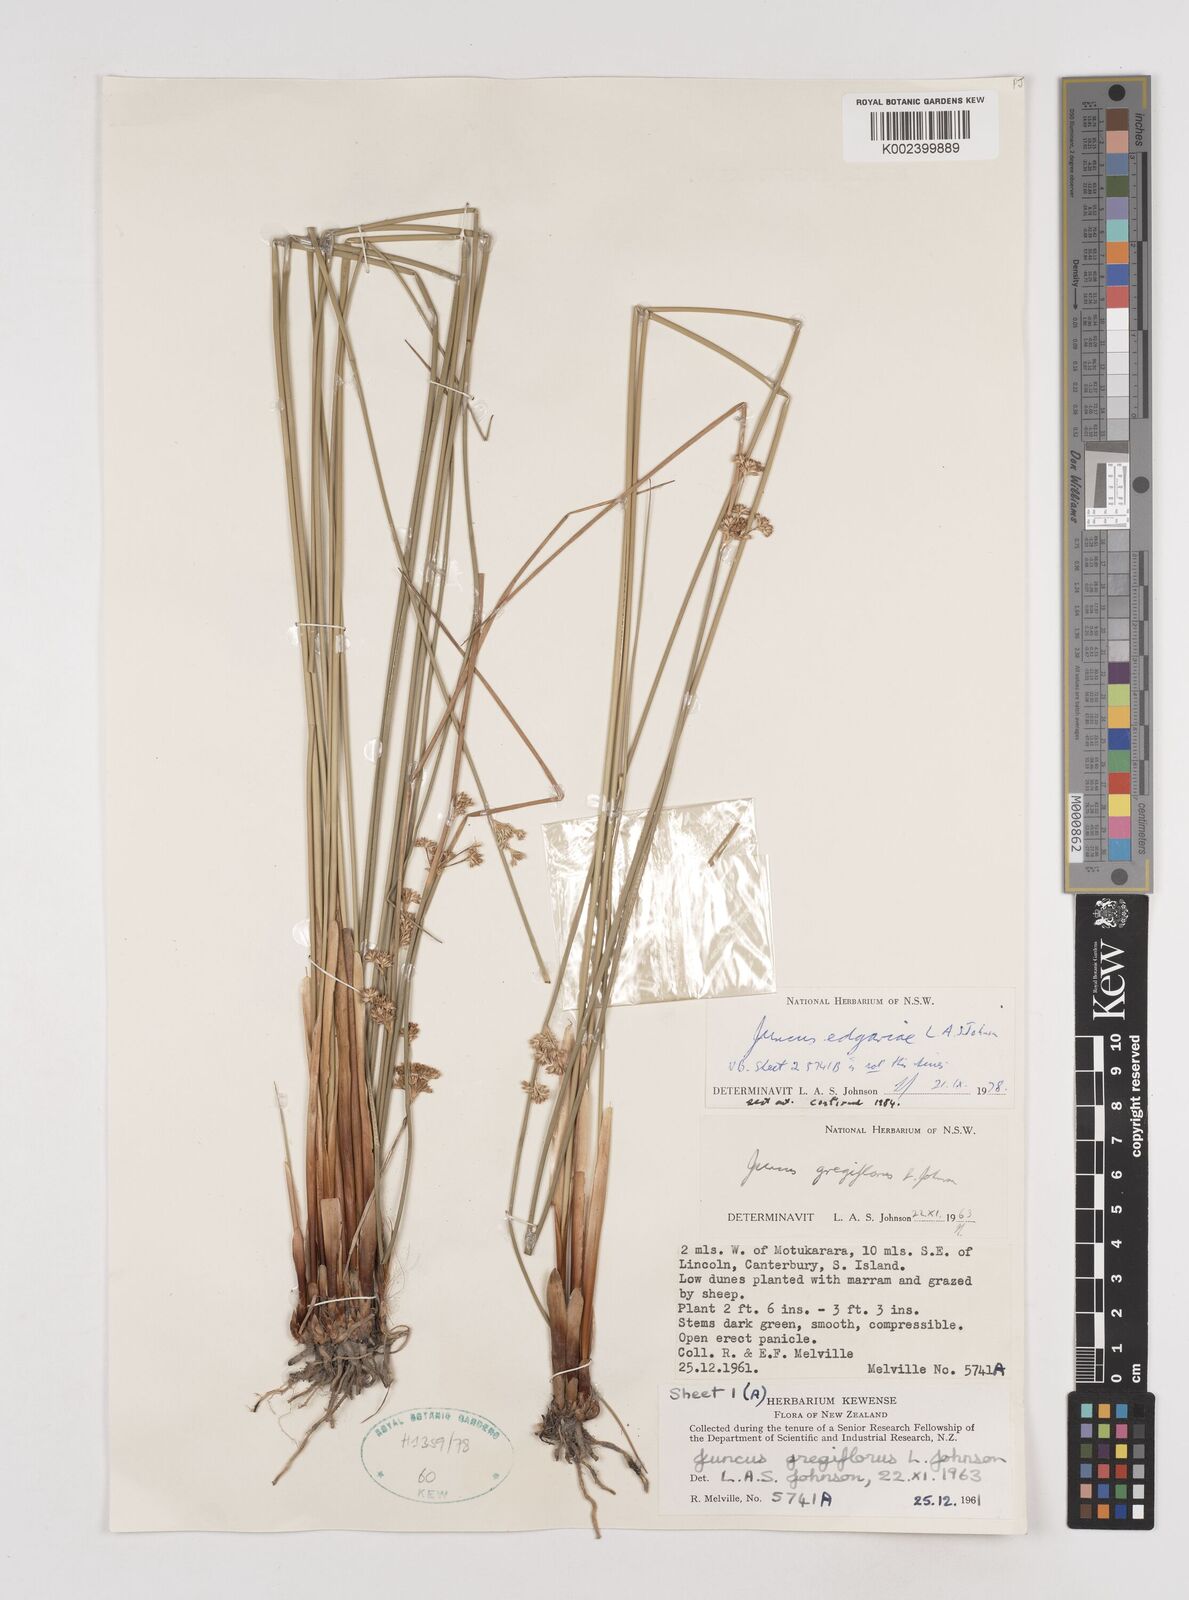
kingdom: Plantae
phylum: Tracheophyta
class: Liliopsida
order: Poales
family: Juncaceae
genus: Juncus
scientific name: Juncus edgariae
